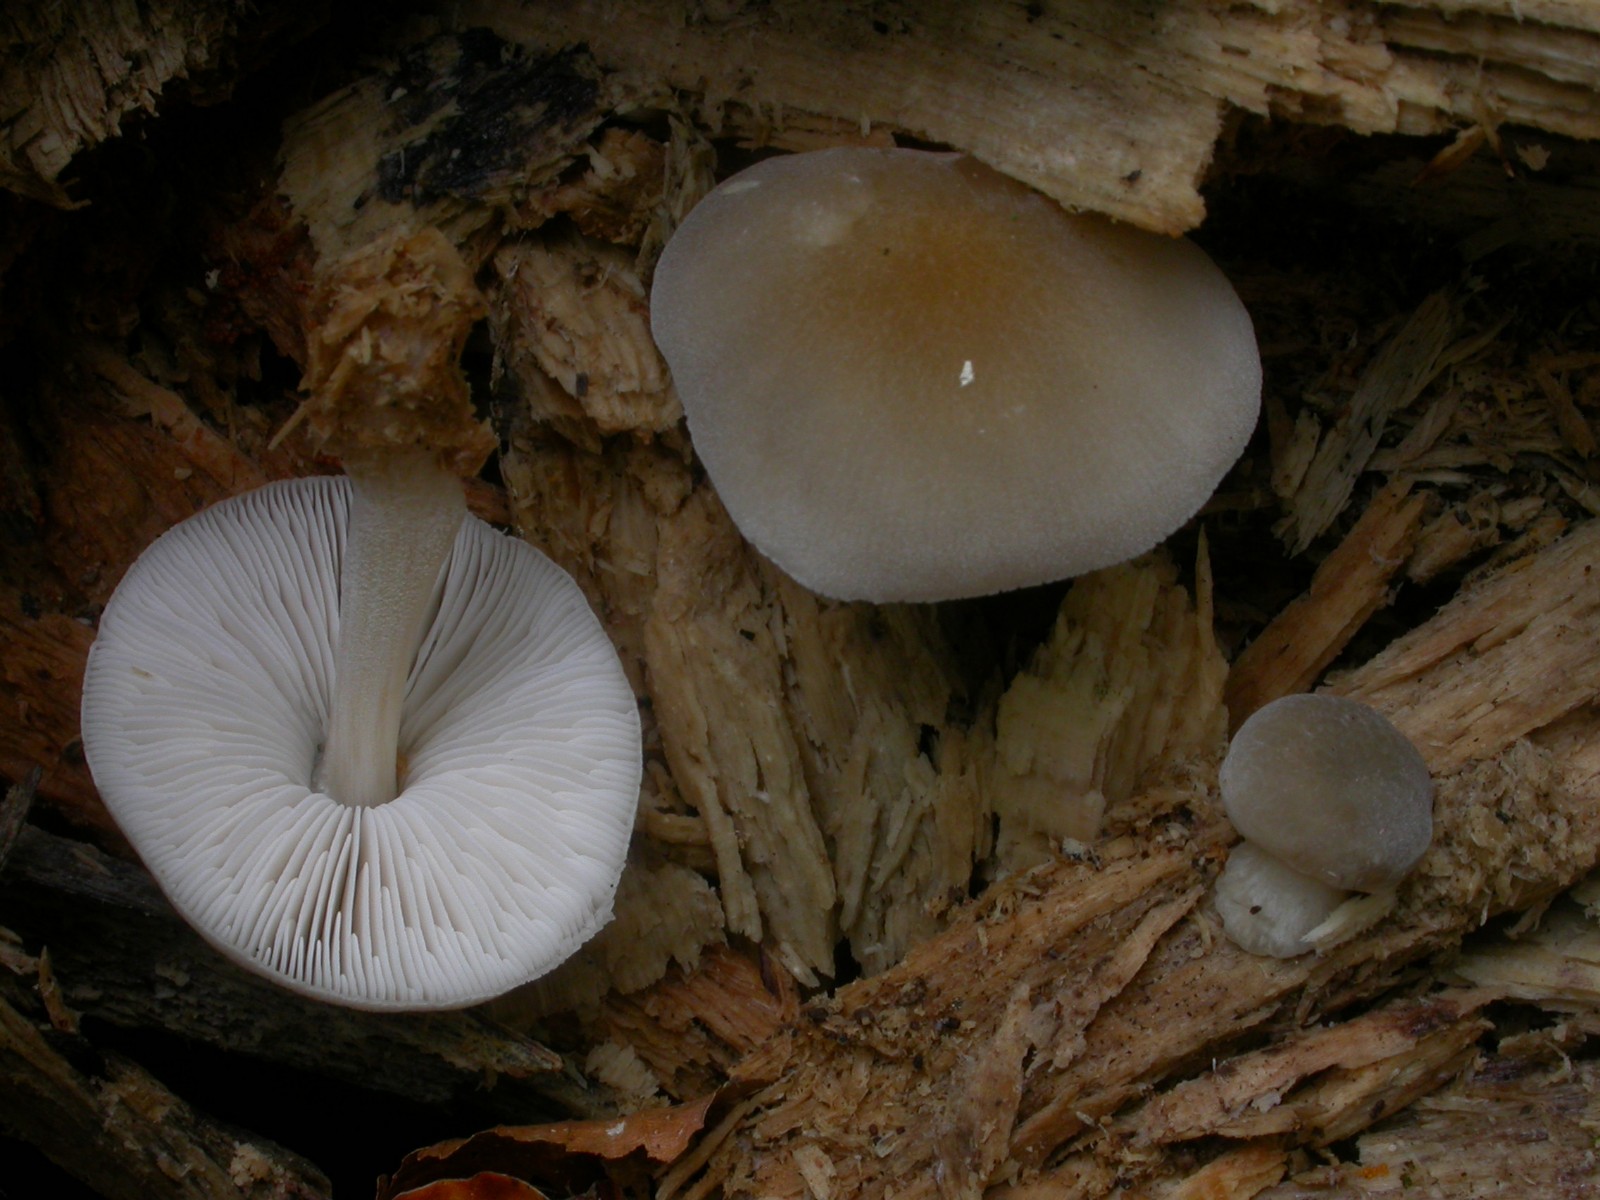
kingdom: Fungi
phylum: Basidiomycota
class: Agaricomycetes
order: Agaricales
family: Pluteaceae
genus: Pluteus
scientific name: Pluteus
